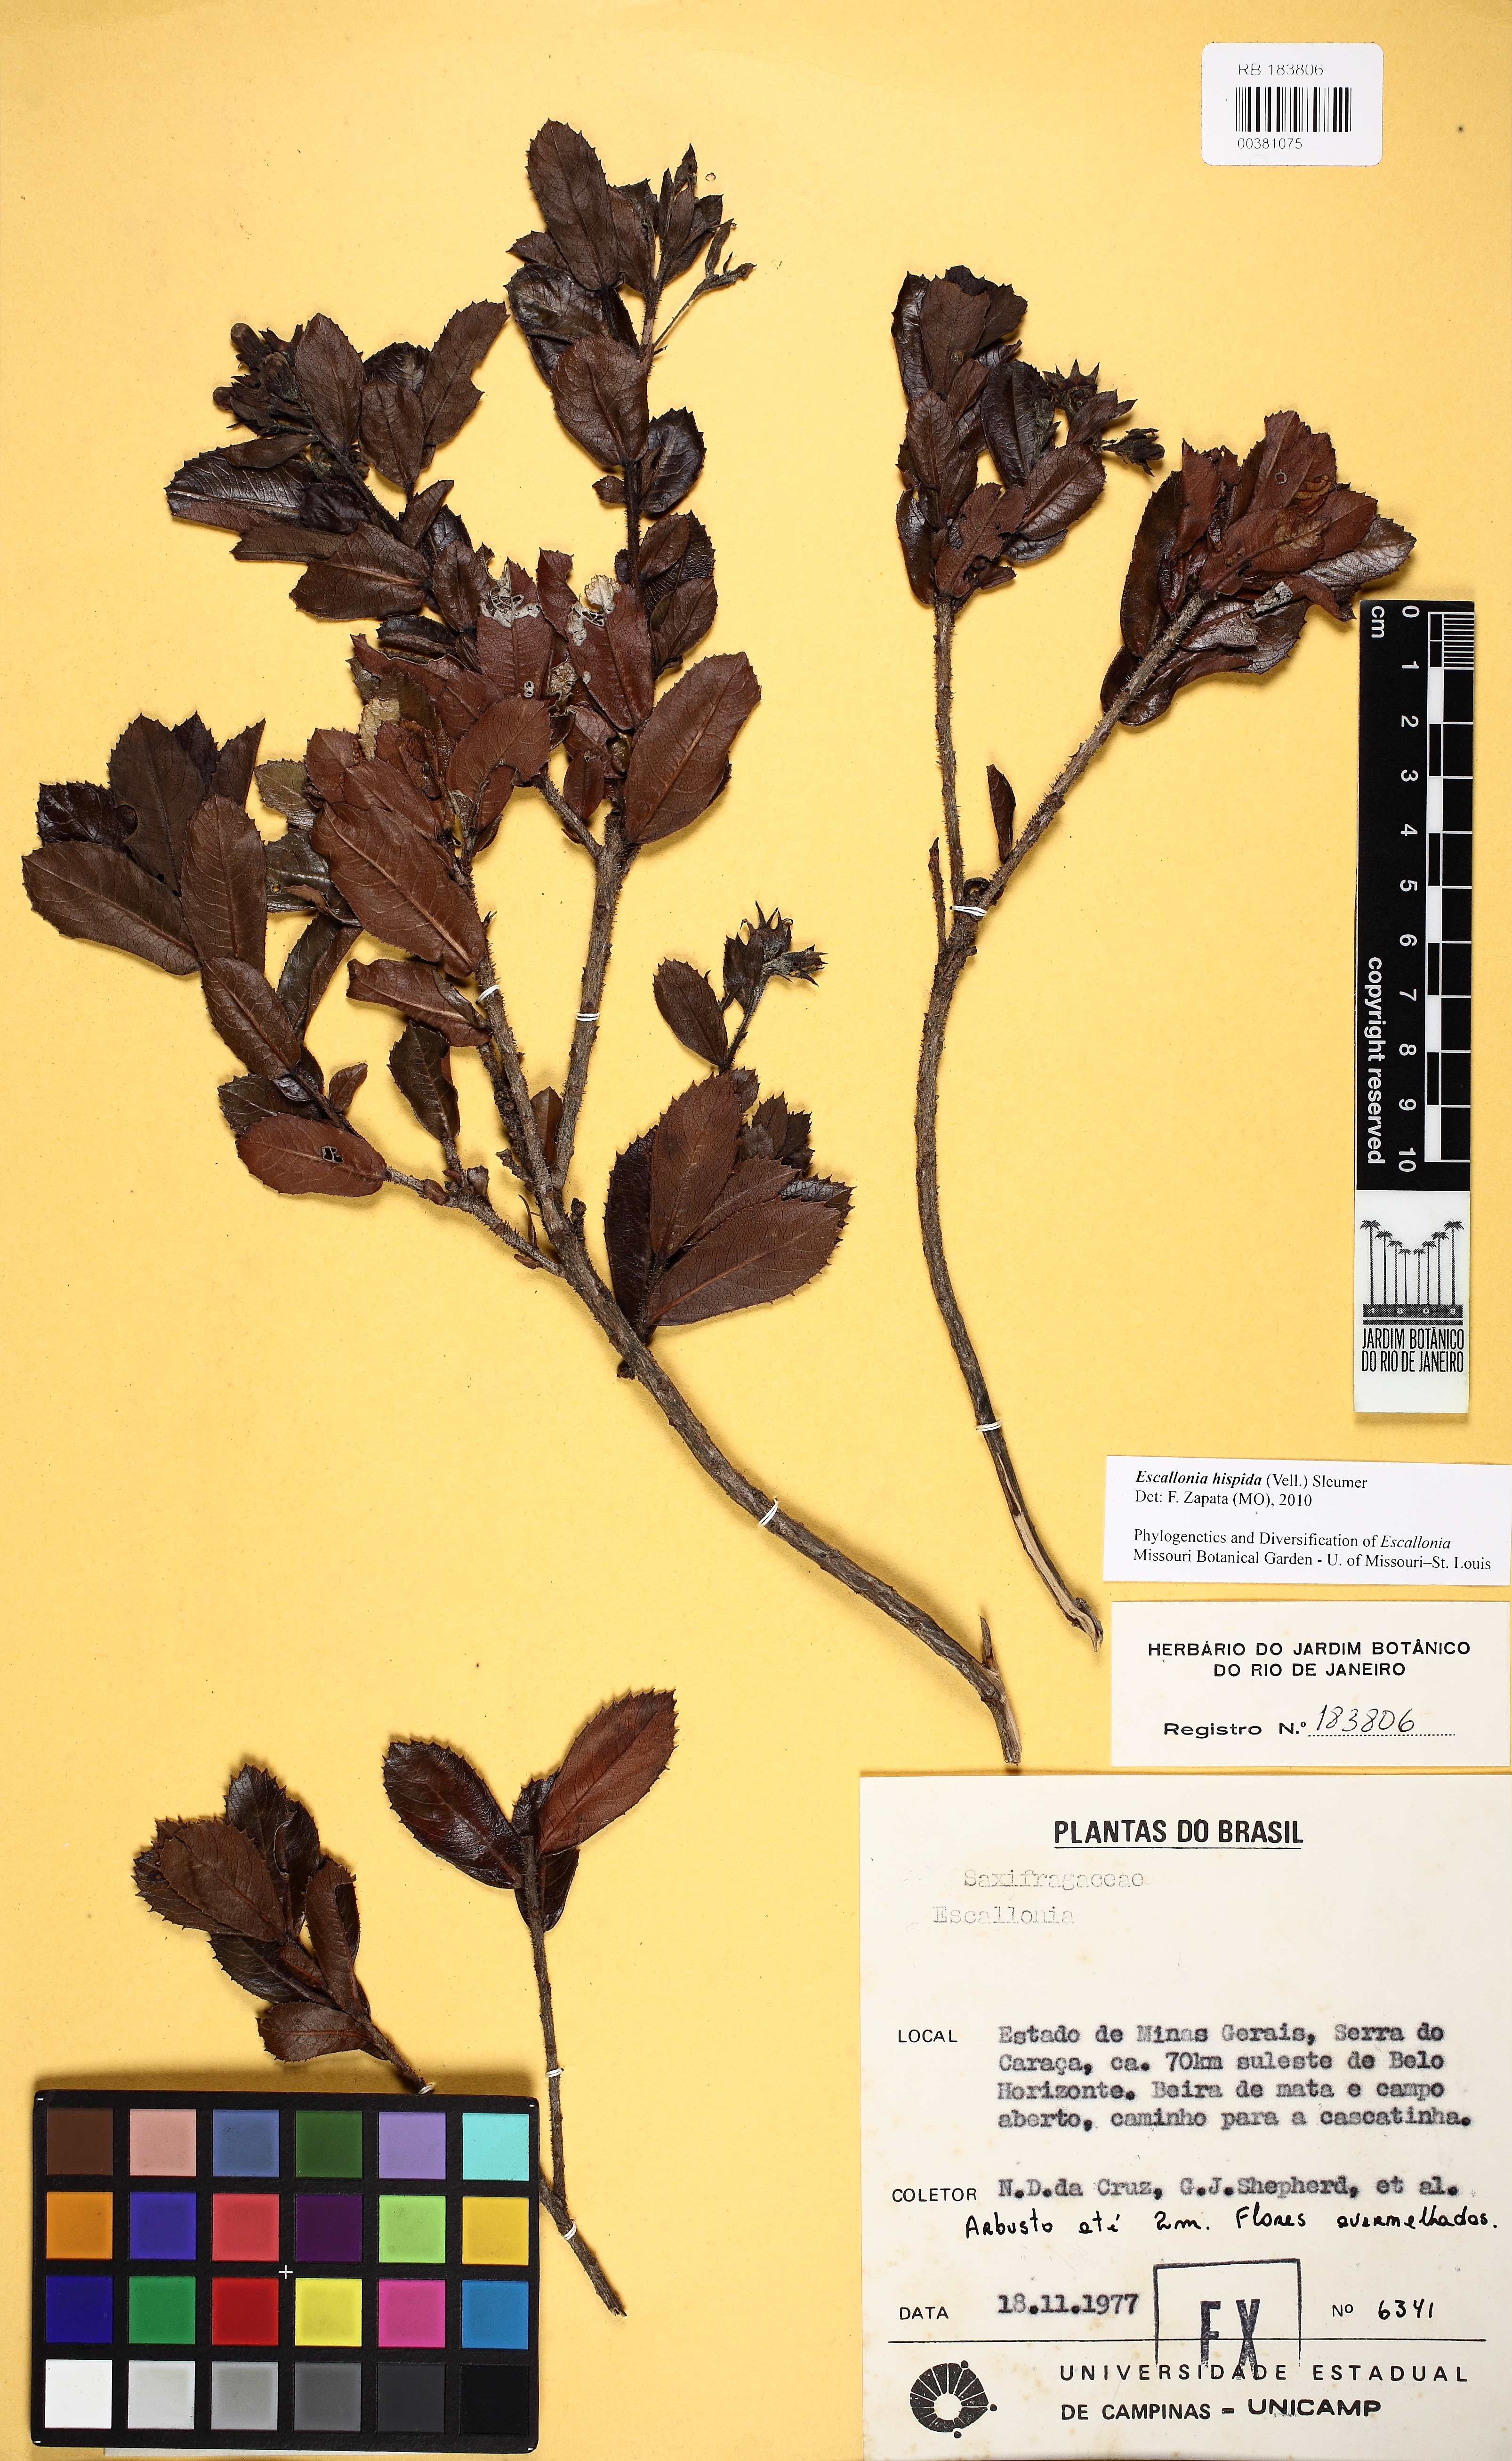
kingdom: Plantae
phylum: Tracheophyta
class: Magnoliopsida
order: Escalloniales
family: Escalloniaceae
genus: Escallonia
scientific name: Escallonia hispida
